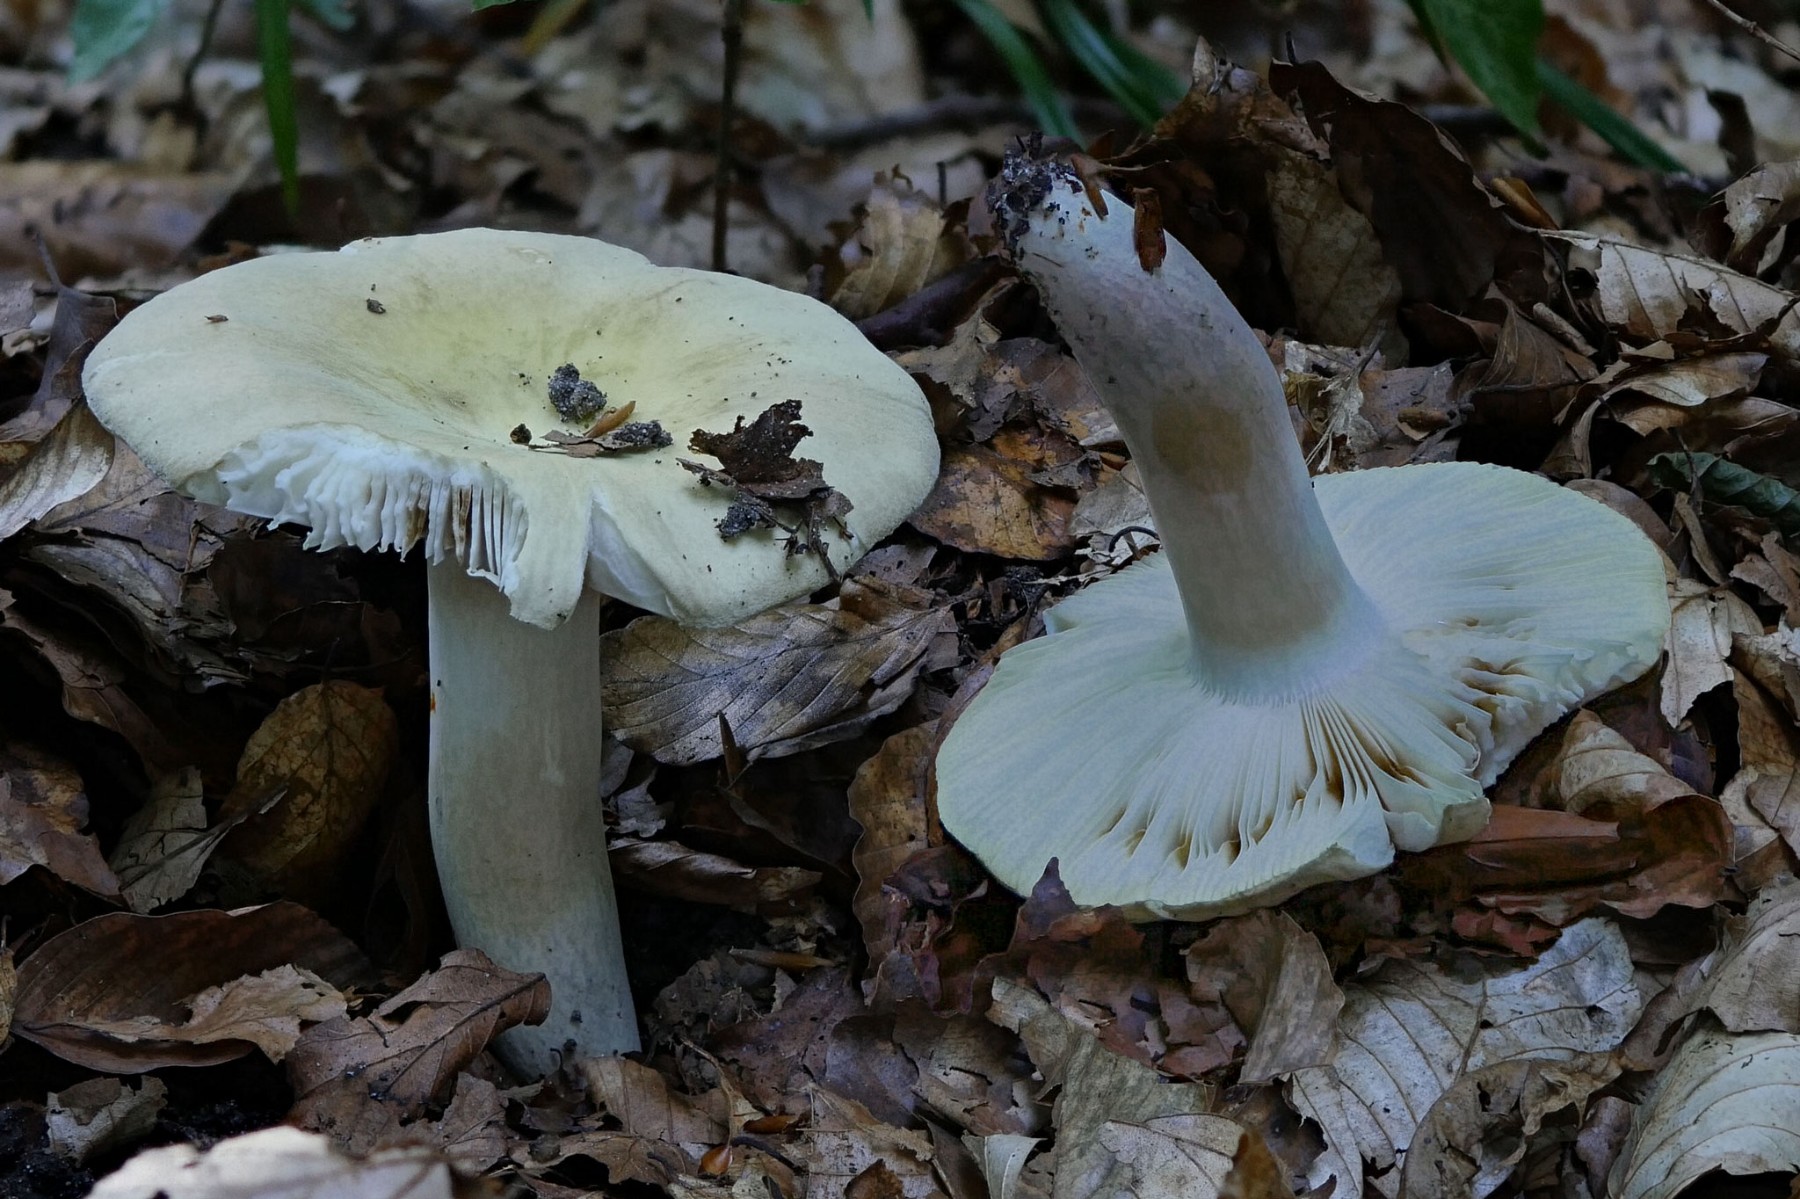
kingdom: Fungi
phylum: Basidiomycota
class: Agaricomycetes
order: Russulales
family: Russulaceae
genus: Russula
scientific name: Russula violeipes
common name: ferskengul skørhat
